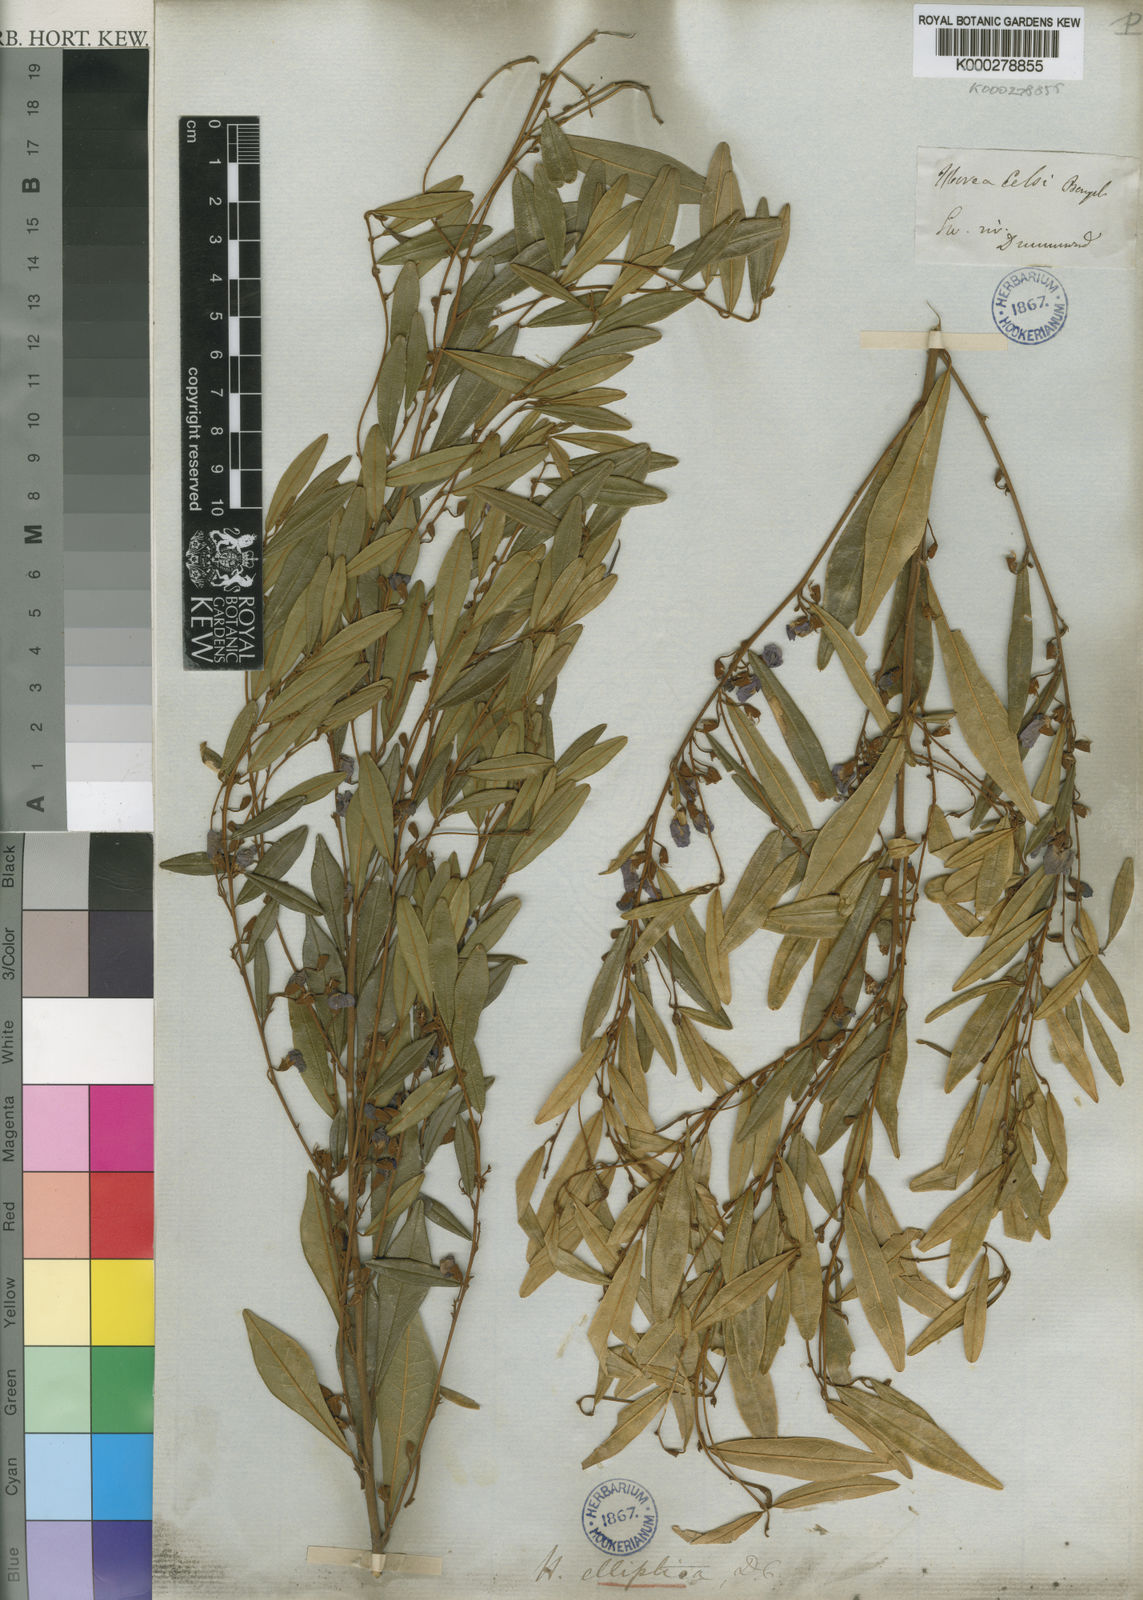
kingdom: Plantae
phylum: Tracheophyta
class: Magnoliopsida
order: Fabales
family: Fabaceae
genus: Hovea
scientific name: Hovea elliptica
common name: Tree hovea
